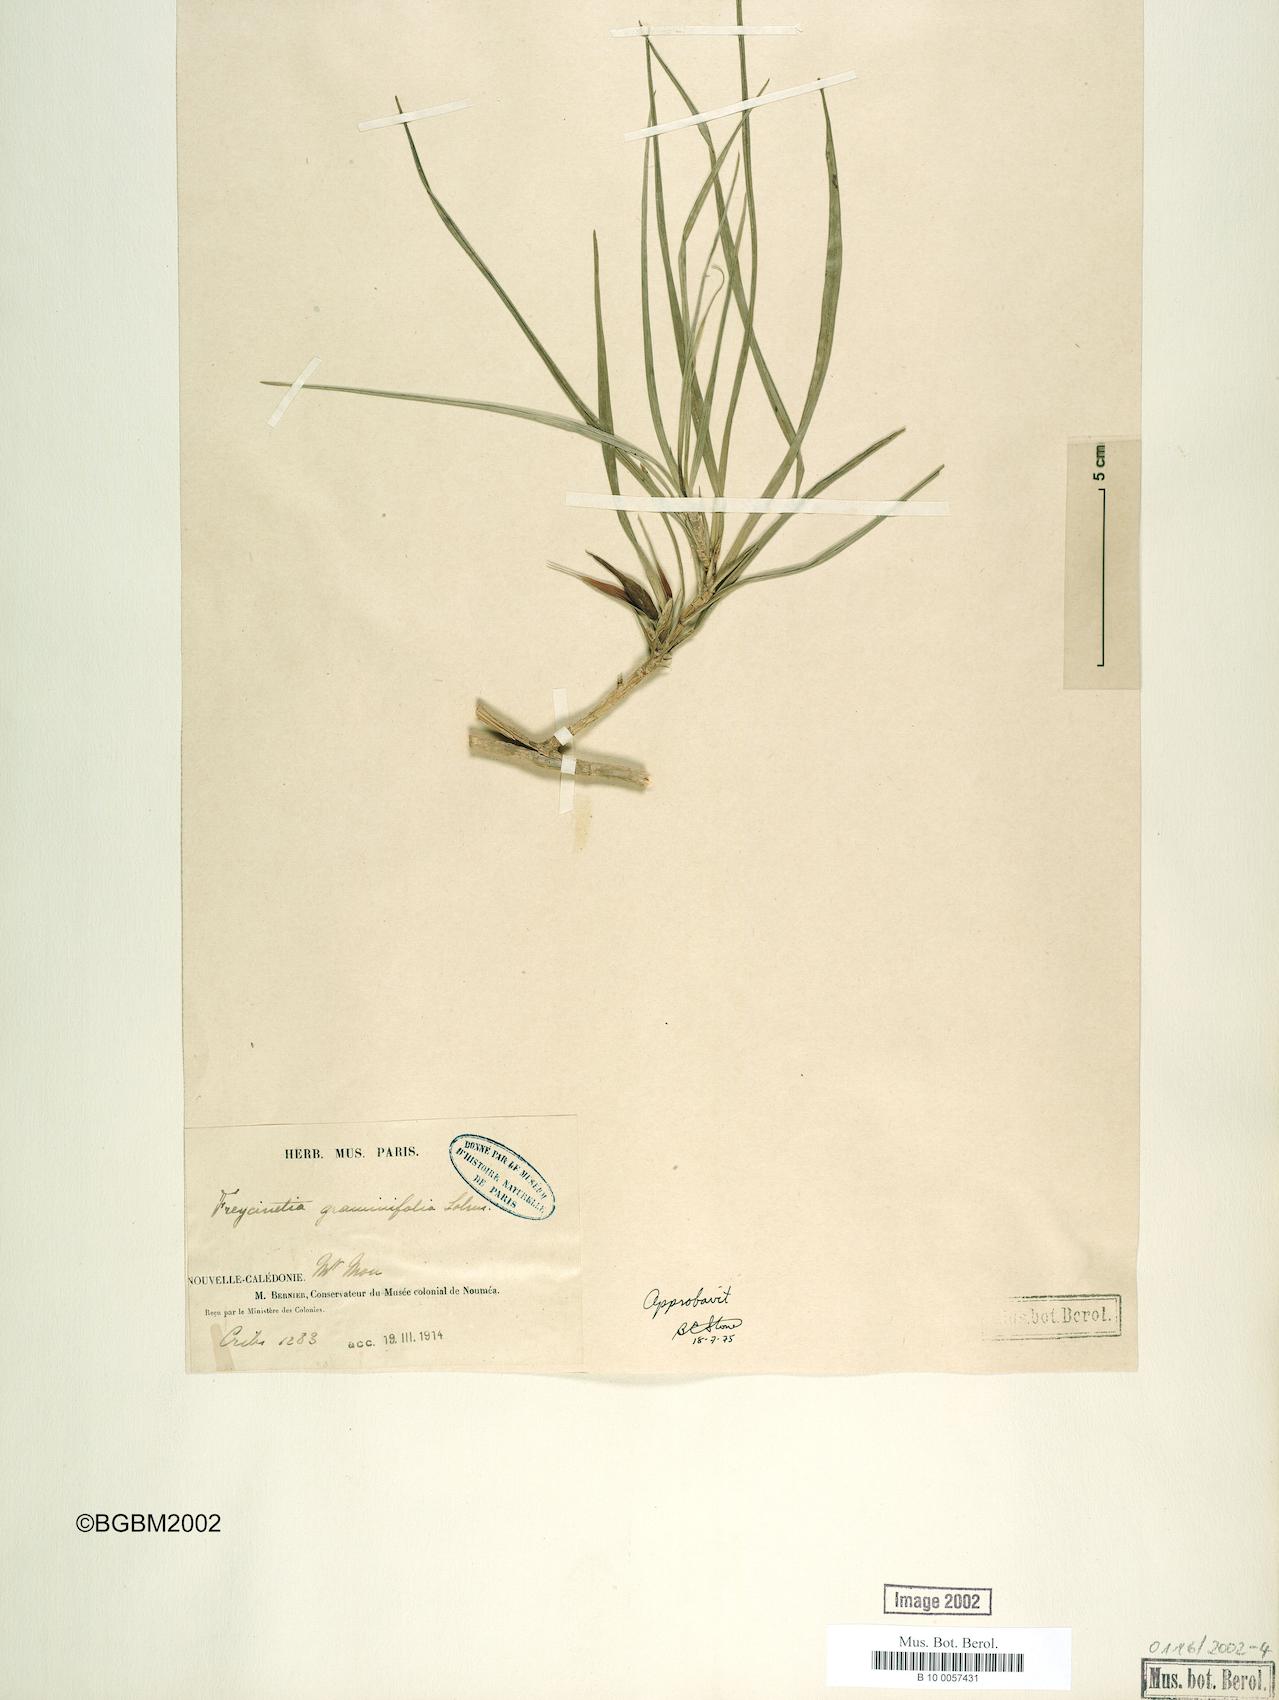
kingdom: Plantae
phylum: Tracheophyta
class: Liliopsida
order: Pandanales
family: Pandanaceae
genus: Freycinetia
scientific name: Freycinetia graminifolia
